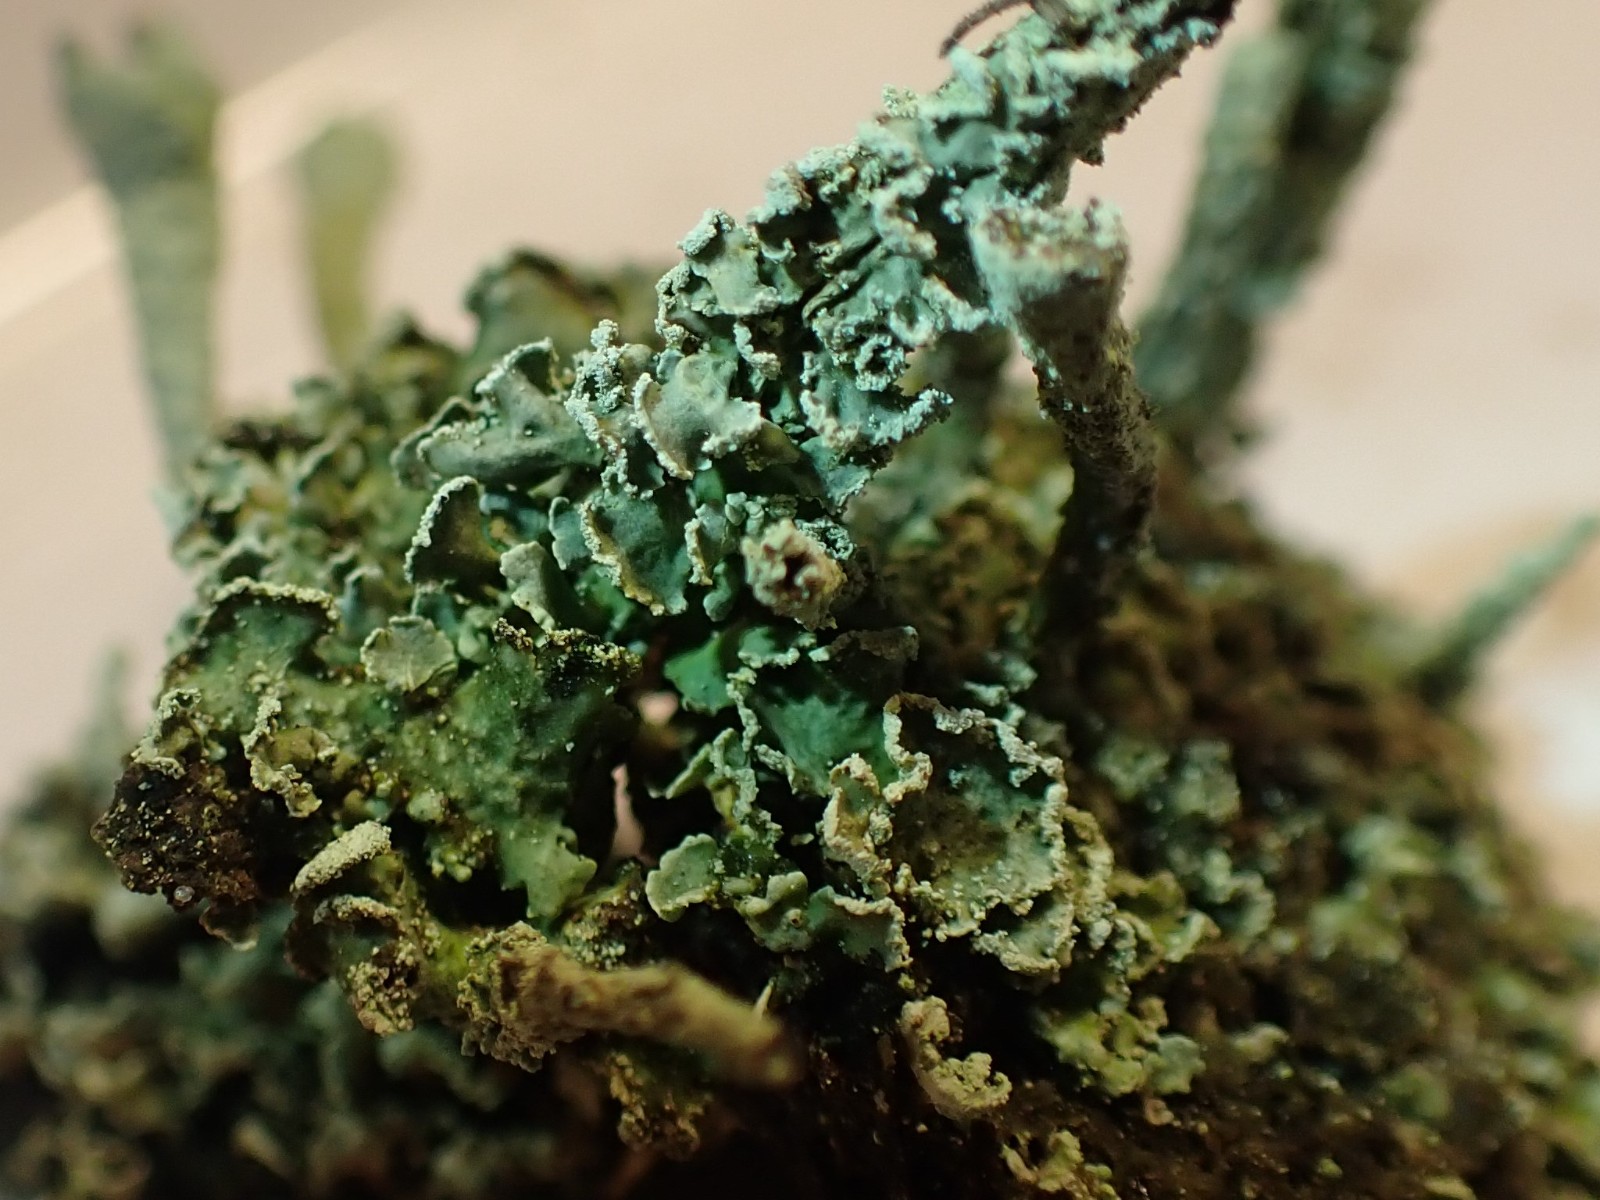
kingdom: Fungi
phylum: Ascomycota
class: Lecanoromycetes
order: Lecanorales
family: Cladoniaceae
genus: Cladonia
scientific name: Cladonia digitata
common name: finger-bægerlav
